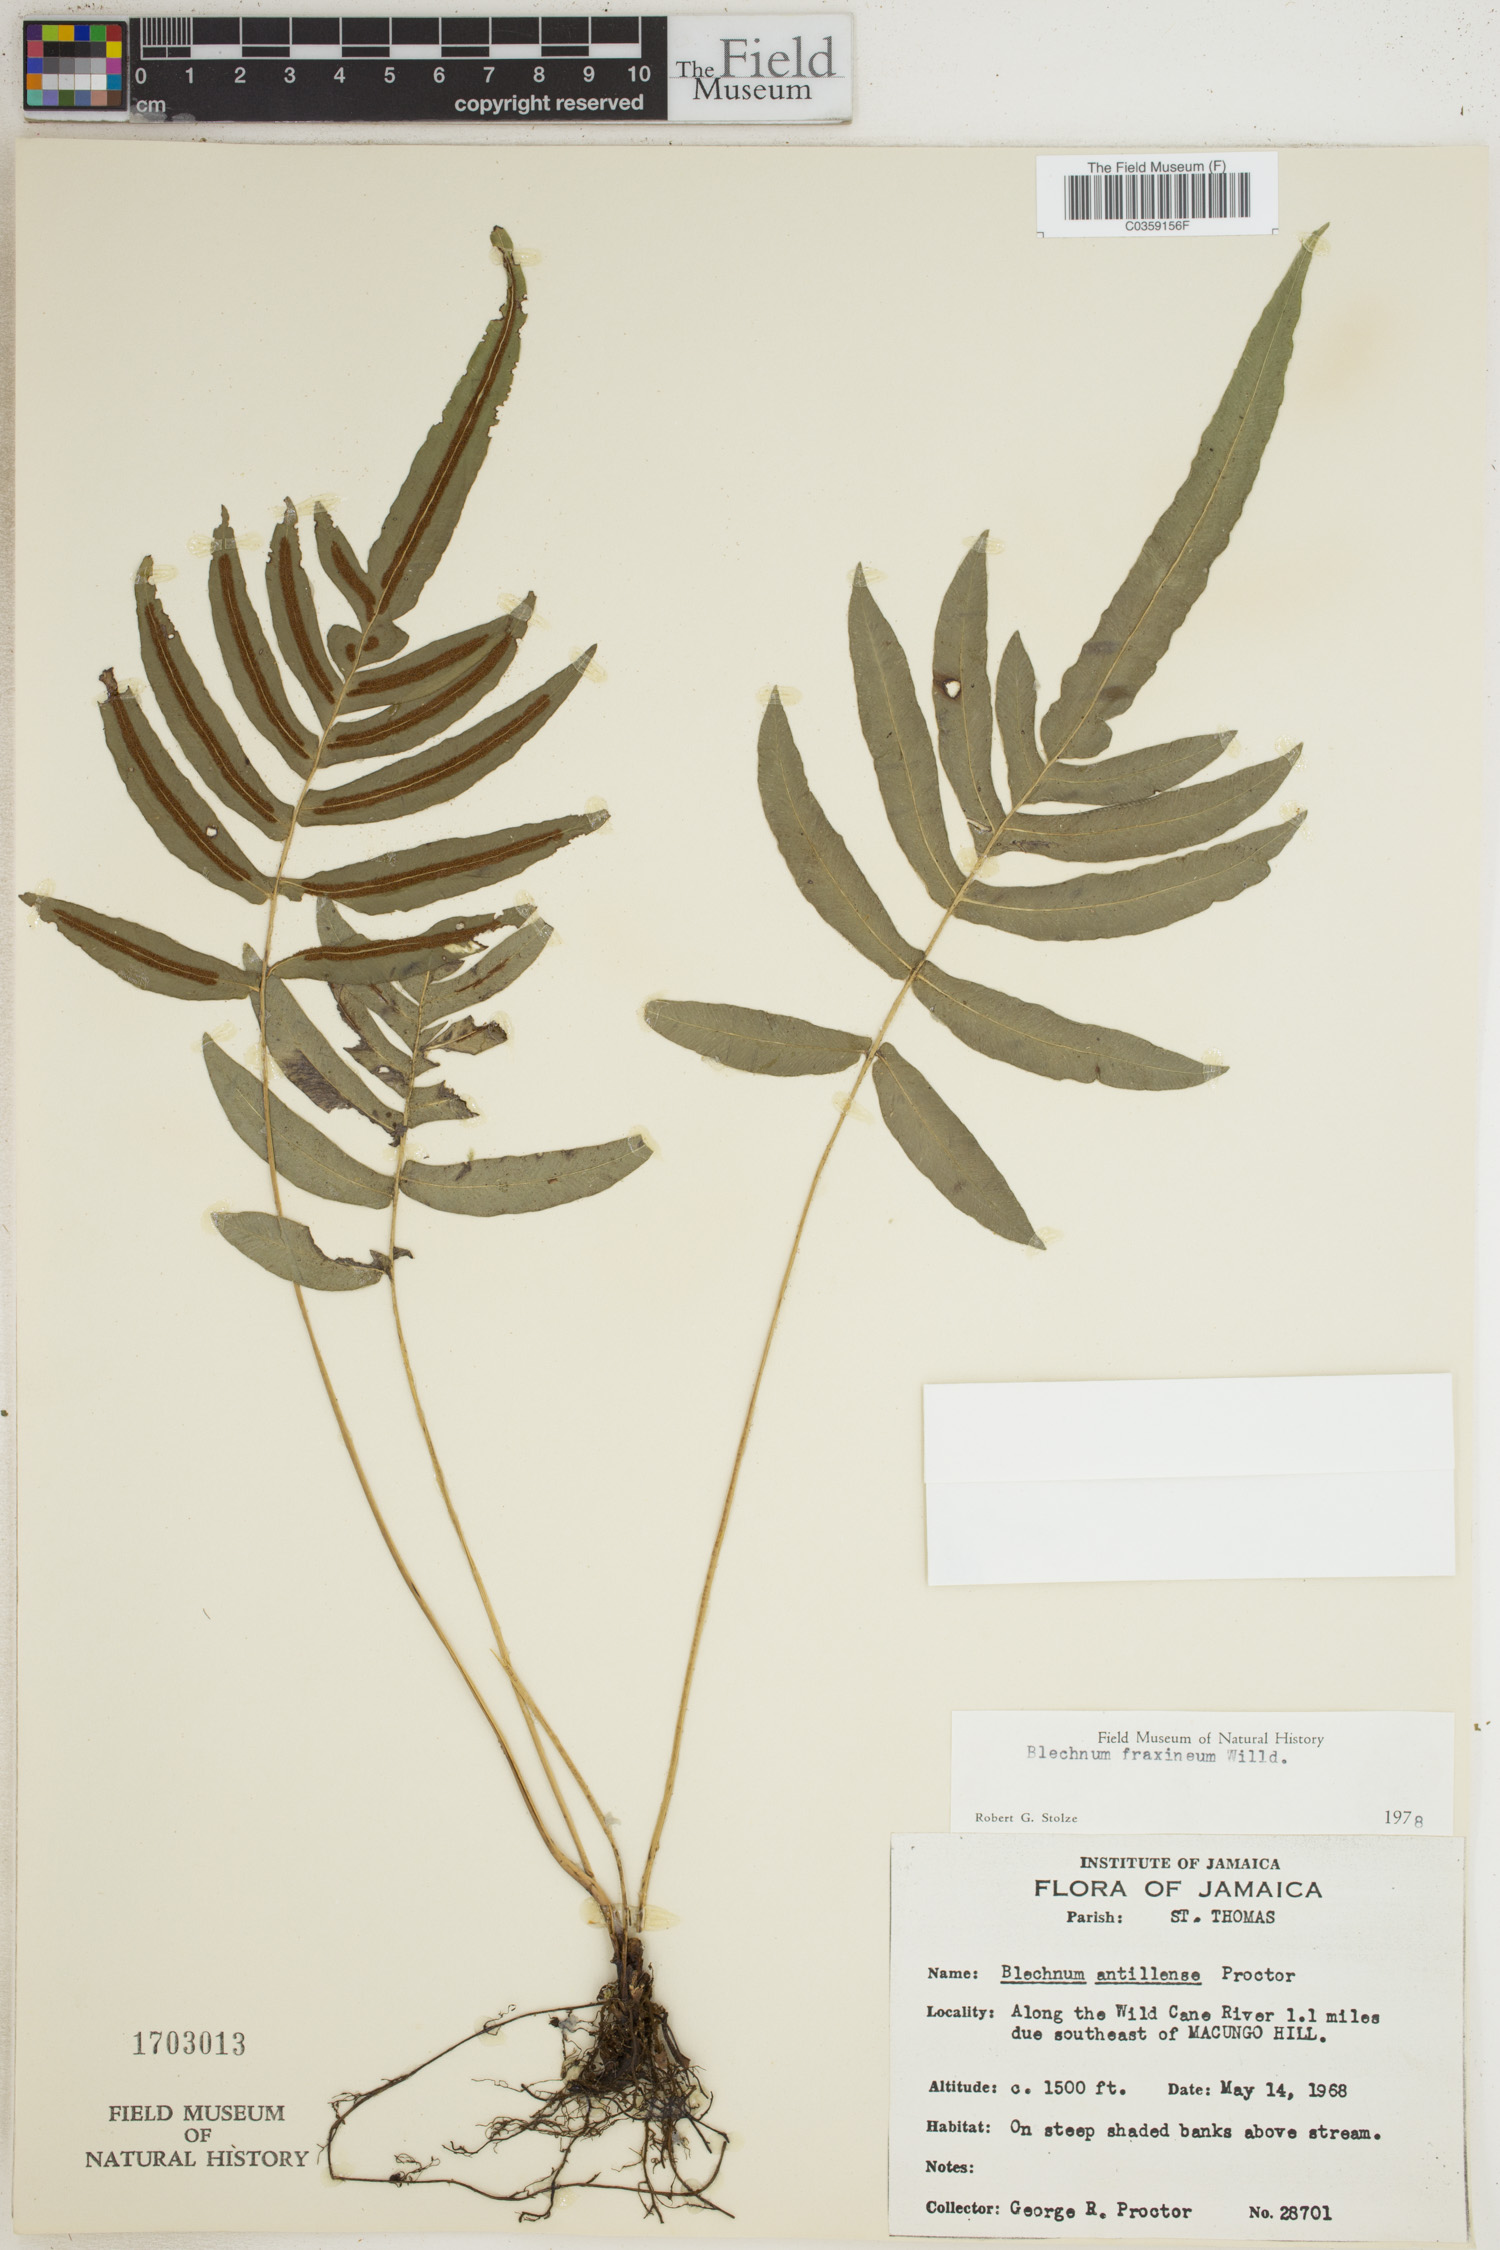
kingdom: Plantae
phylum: Tracheophyta
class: Polypodiopsida
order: Polypodiales
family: Blechnaceae
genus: Blechnum
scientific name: Blechnum gracile
